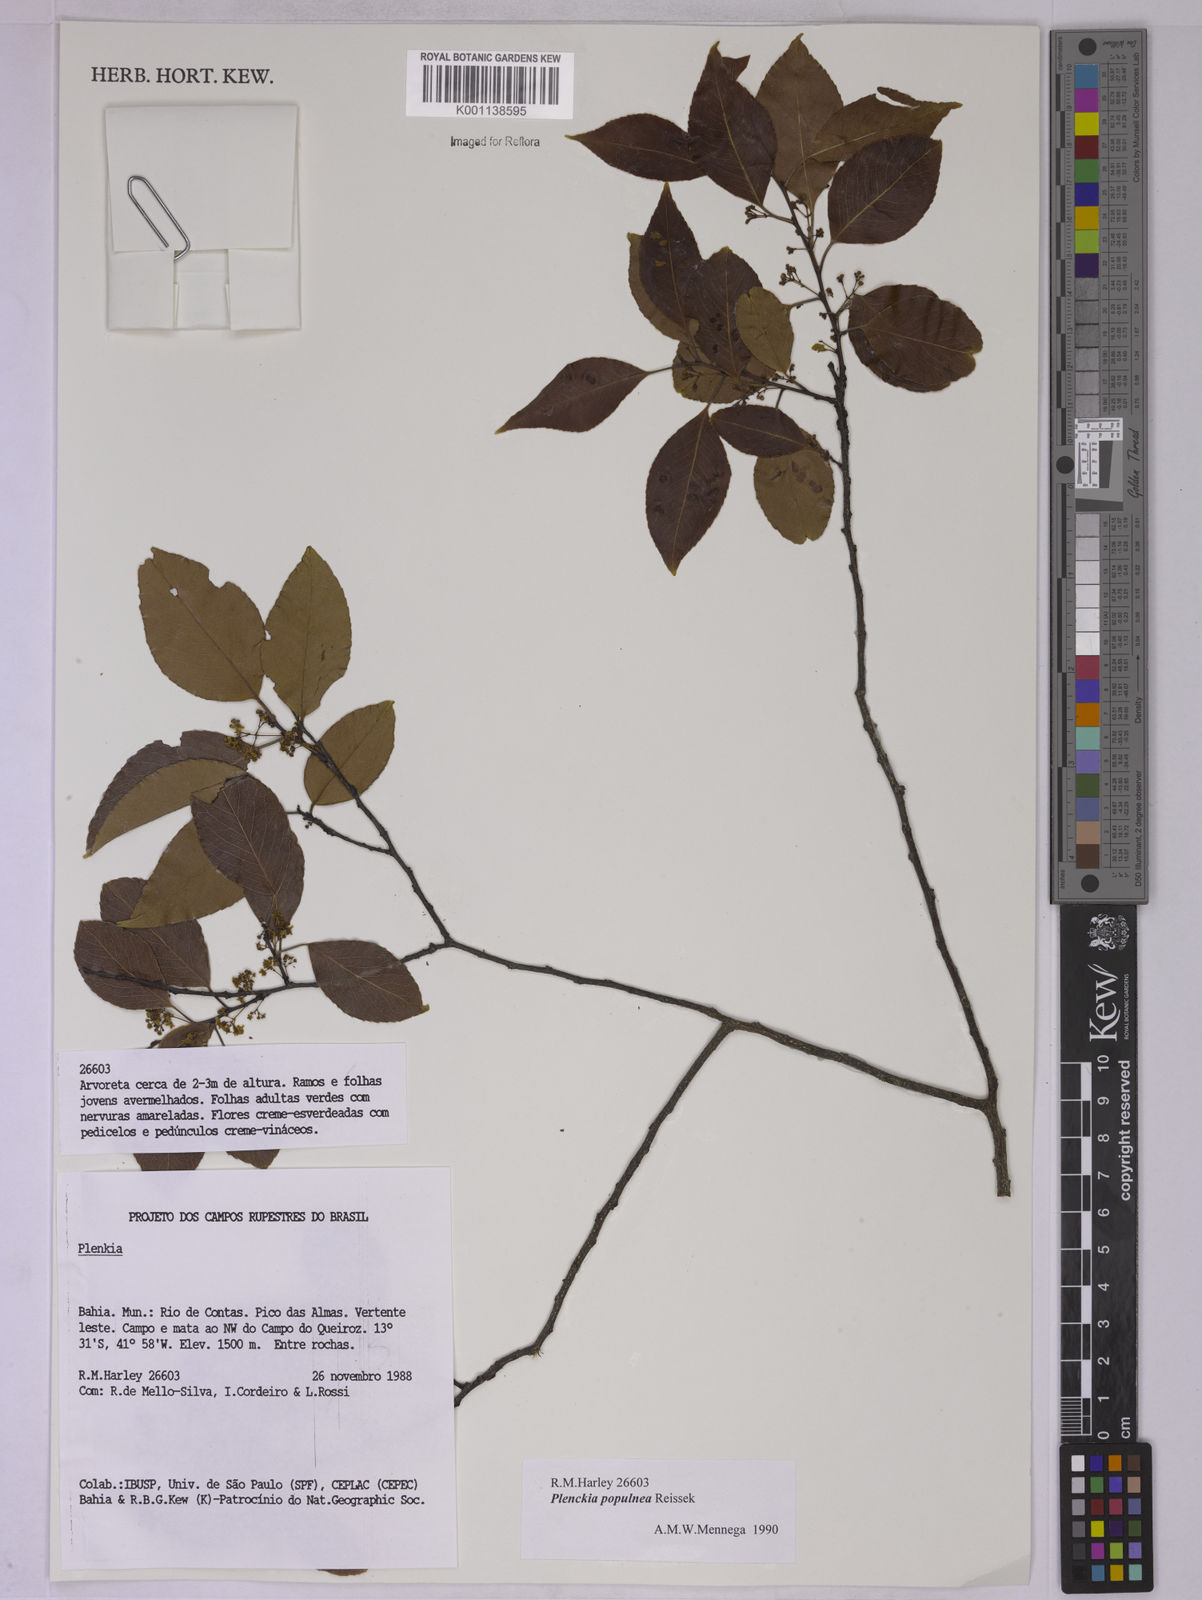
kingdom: Plantae
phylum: Tracheophyta
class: Magnoliopsida
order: Celastrales
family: Celastraceae
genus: Plenckia
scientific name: Plenckia populnea
